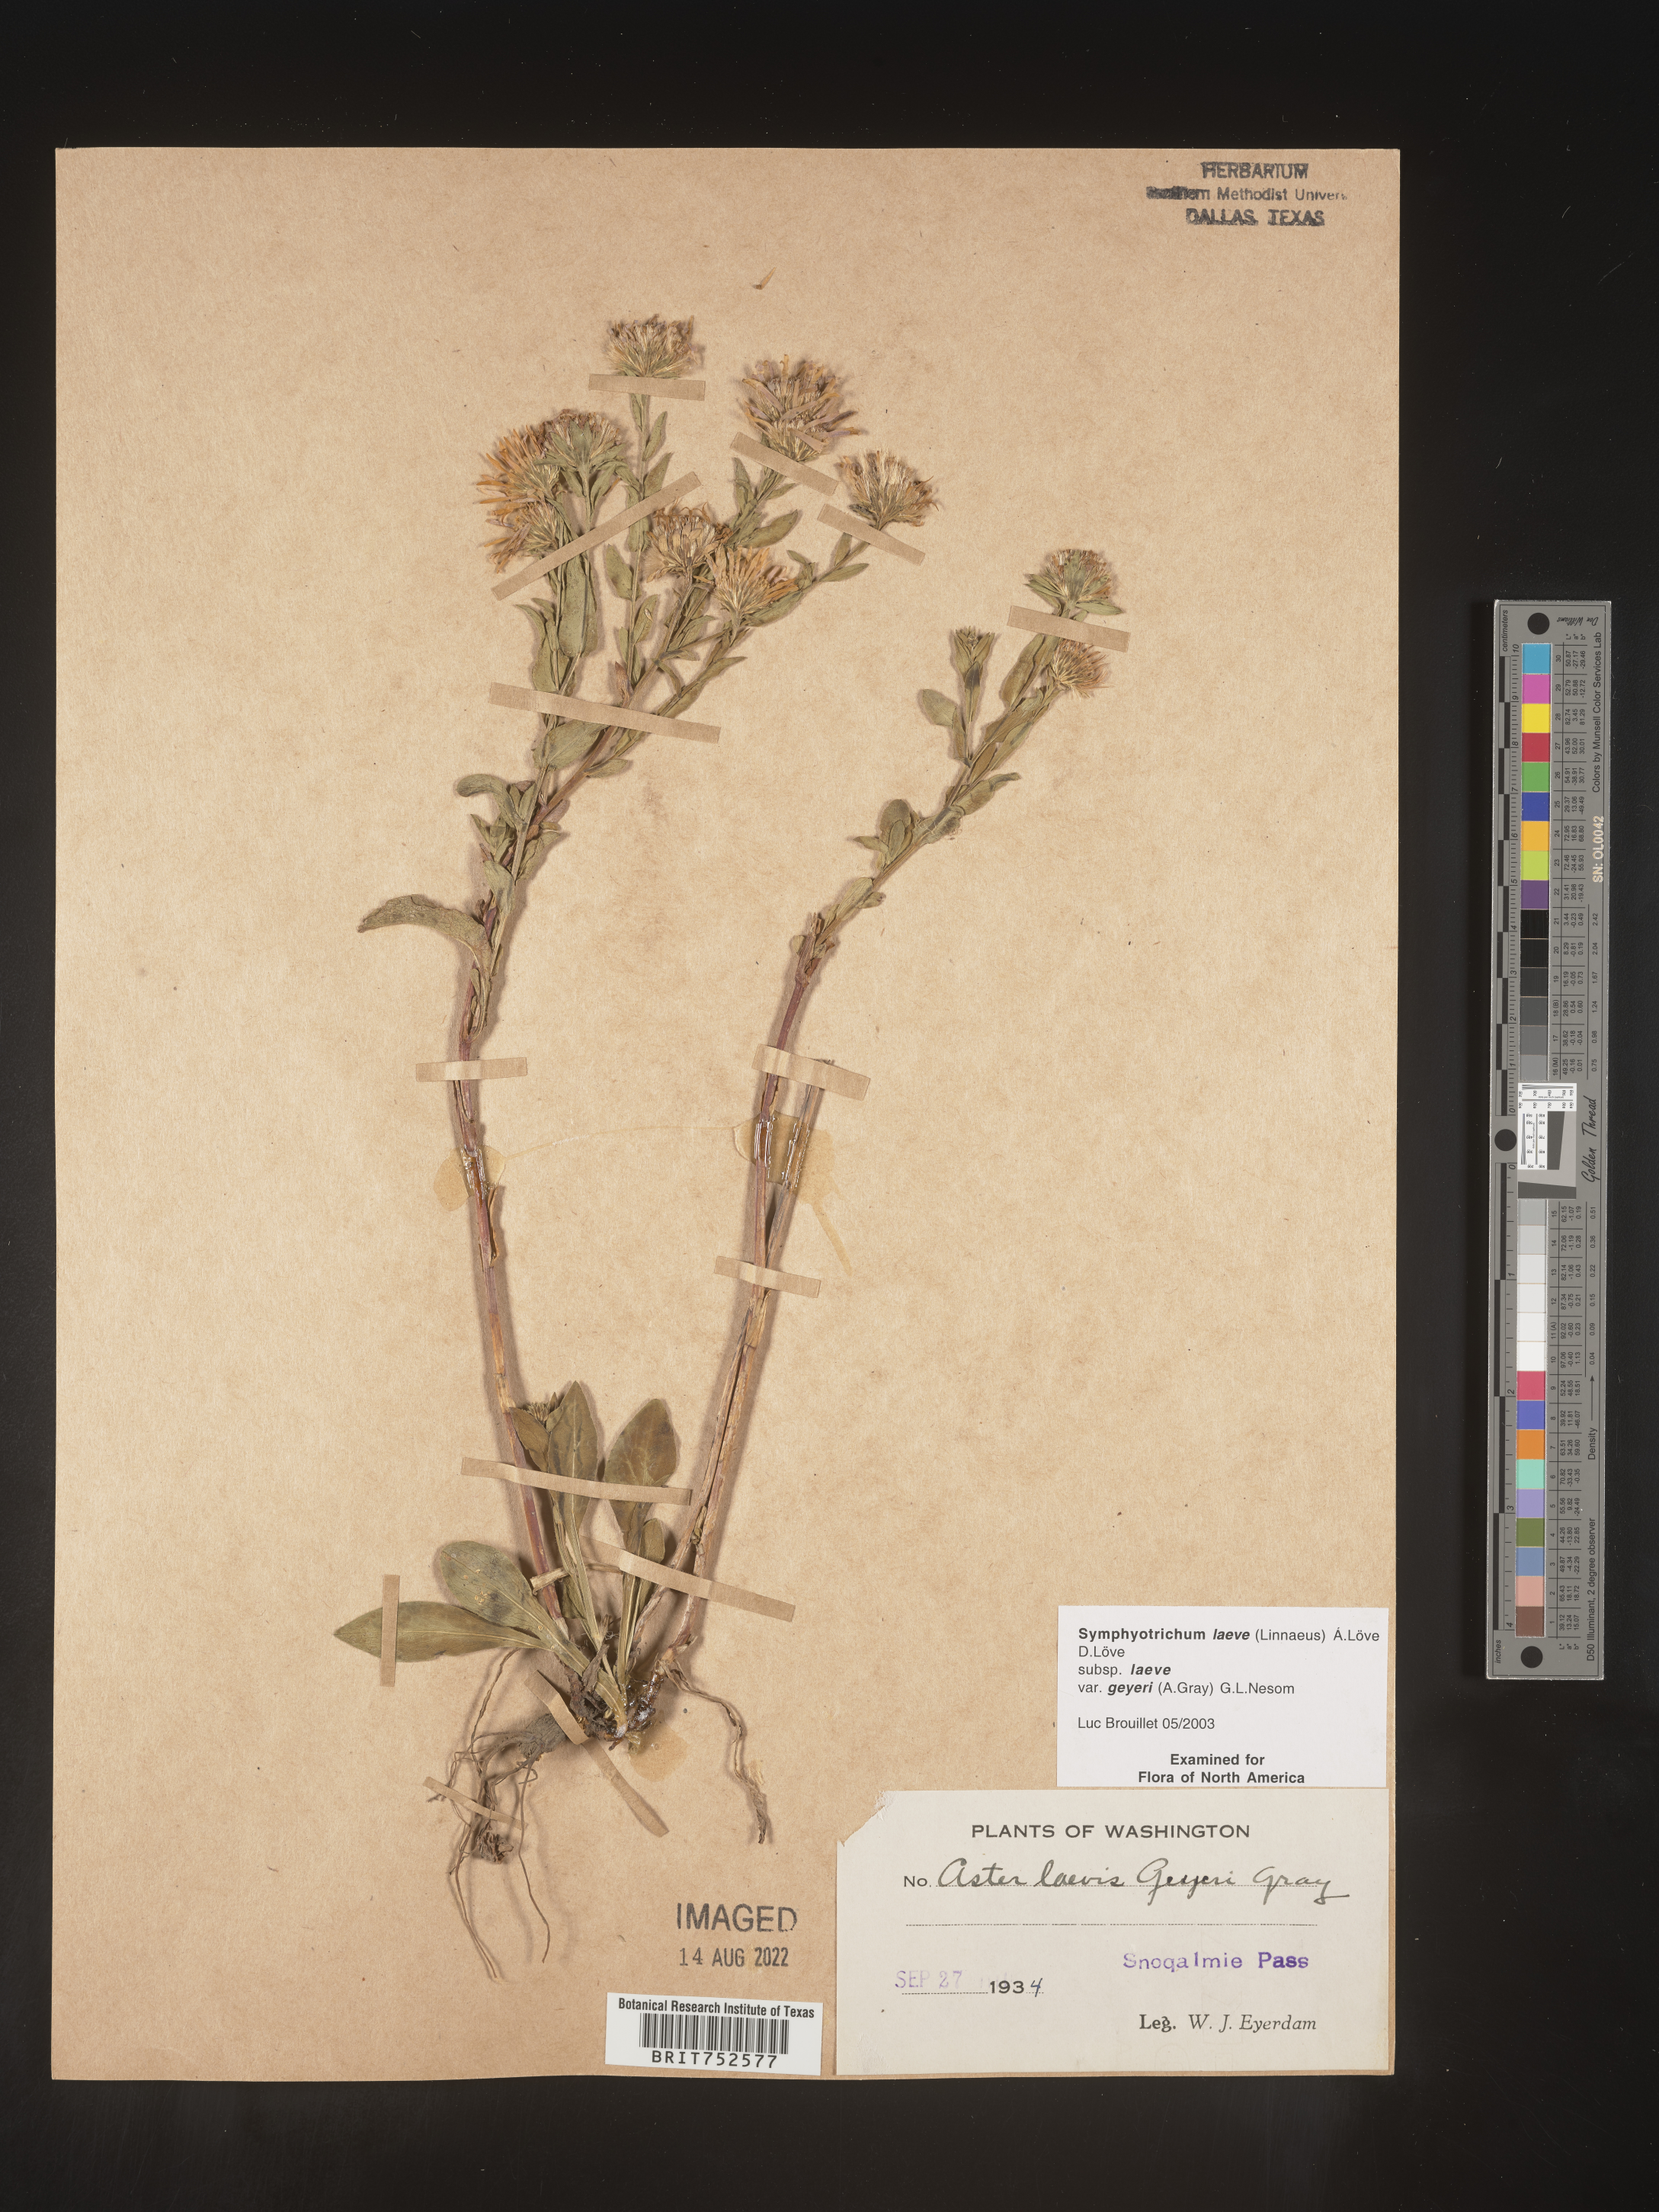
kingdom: Plantae
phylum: Tracheophyta
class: Magnoliopsida
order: Asterales
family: Asteraceae
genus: Symphyotrichum
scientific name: Symphyotrichum laeve
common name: Glaucous aster
